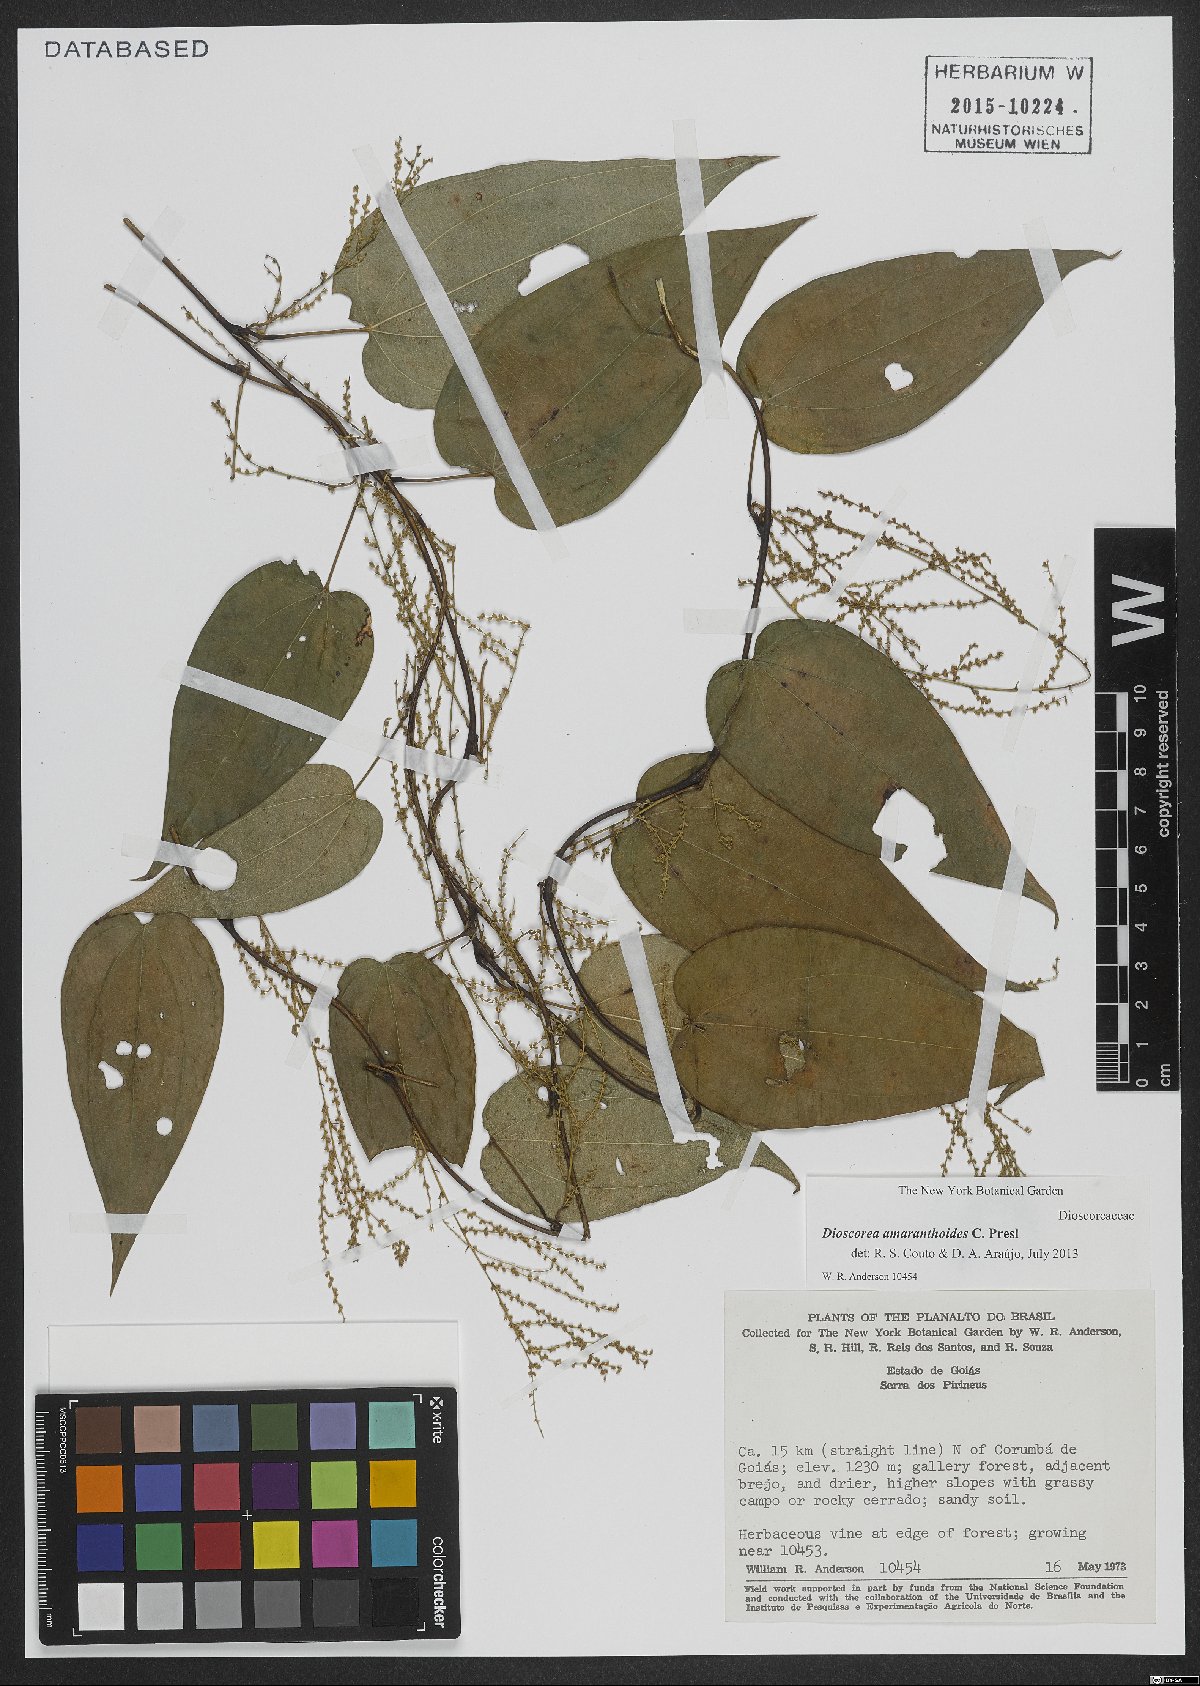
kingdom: Plantae
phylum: Tracheophyta
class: Liliopsida
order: Dioscoreales
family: Dioscoreaceae
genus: Dioscorea
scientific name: Dioscorea amaranthoides
